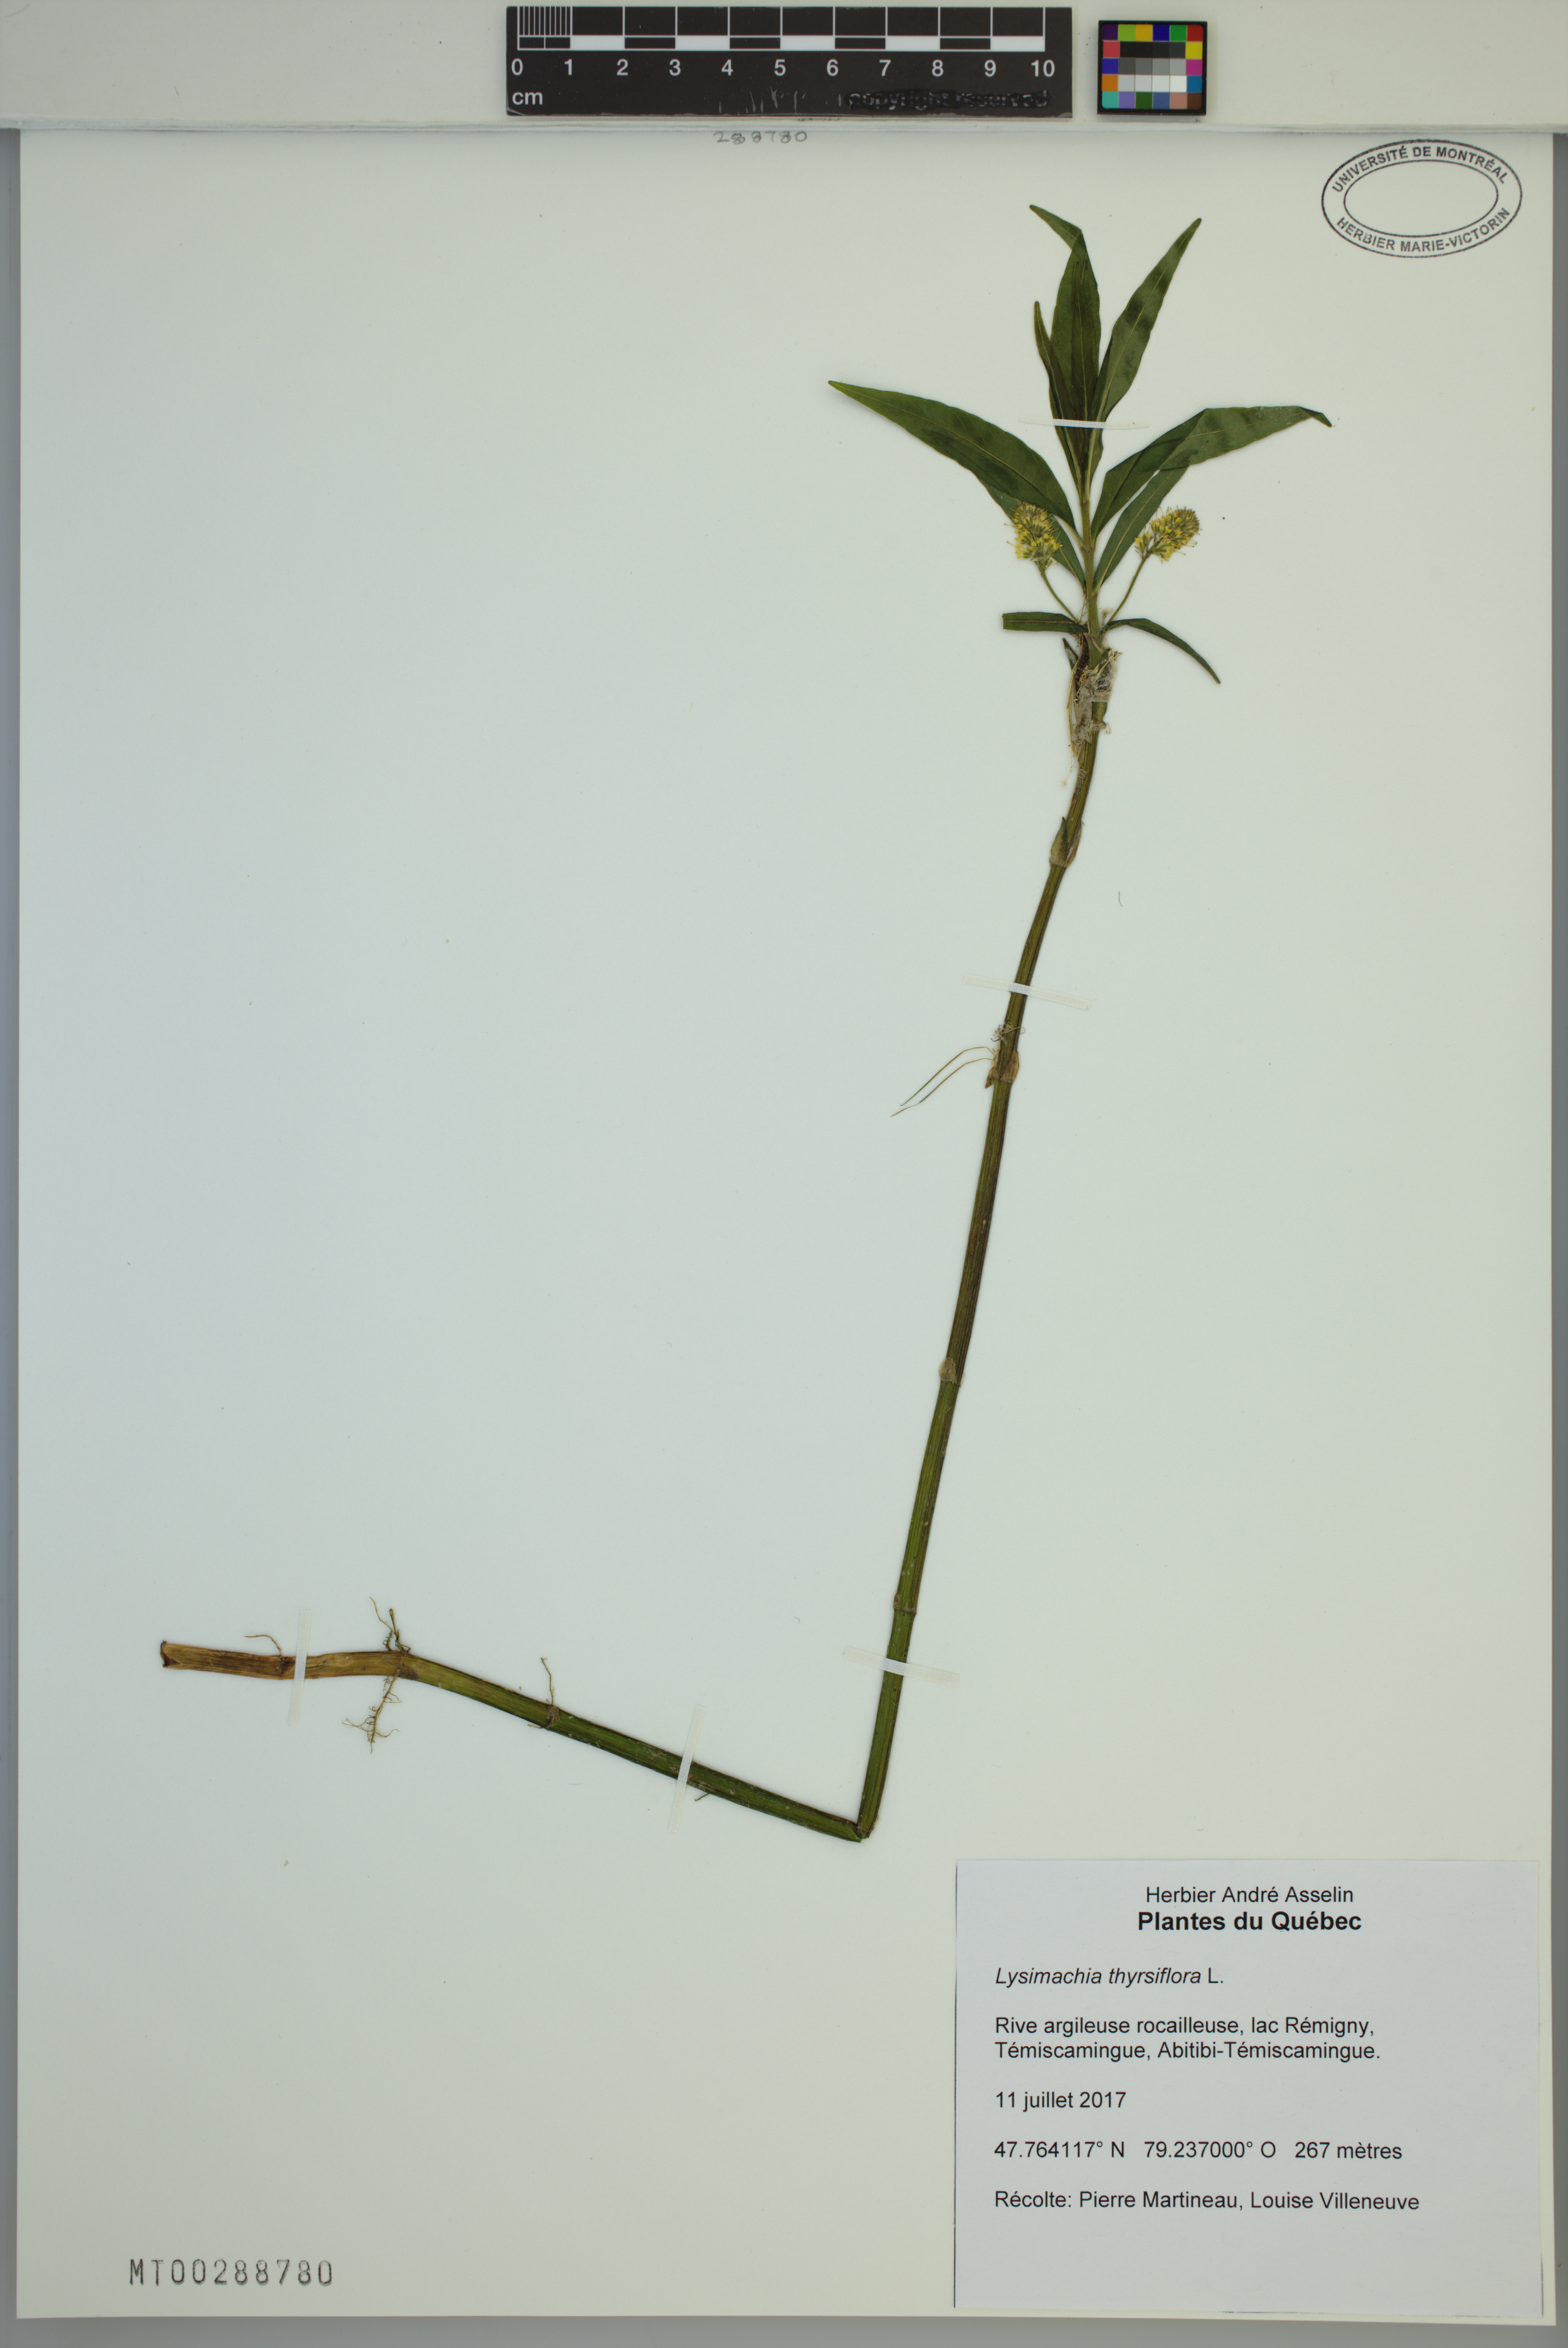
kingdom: Plantae
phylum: Tracheophyta
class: Magnoliopsida
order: Ericales
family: Primulaceae
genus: Lysimachia
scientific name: Lysimachia thyrsiflora
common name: Tufted loosestrife
